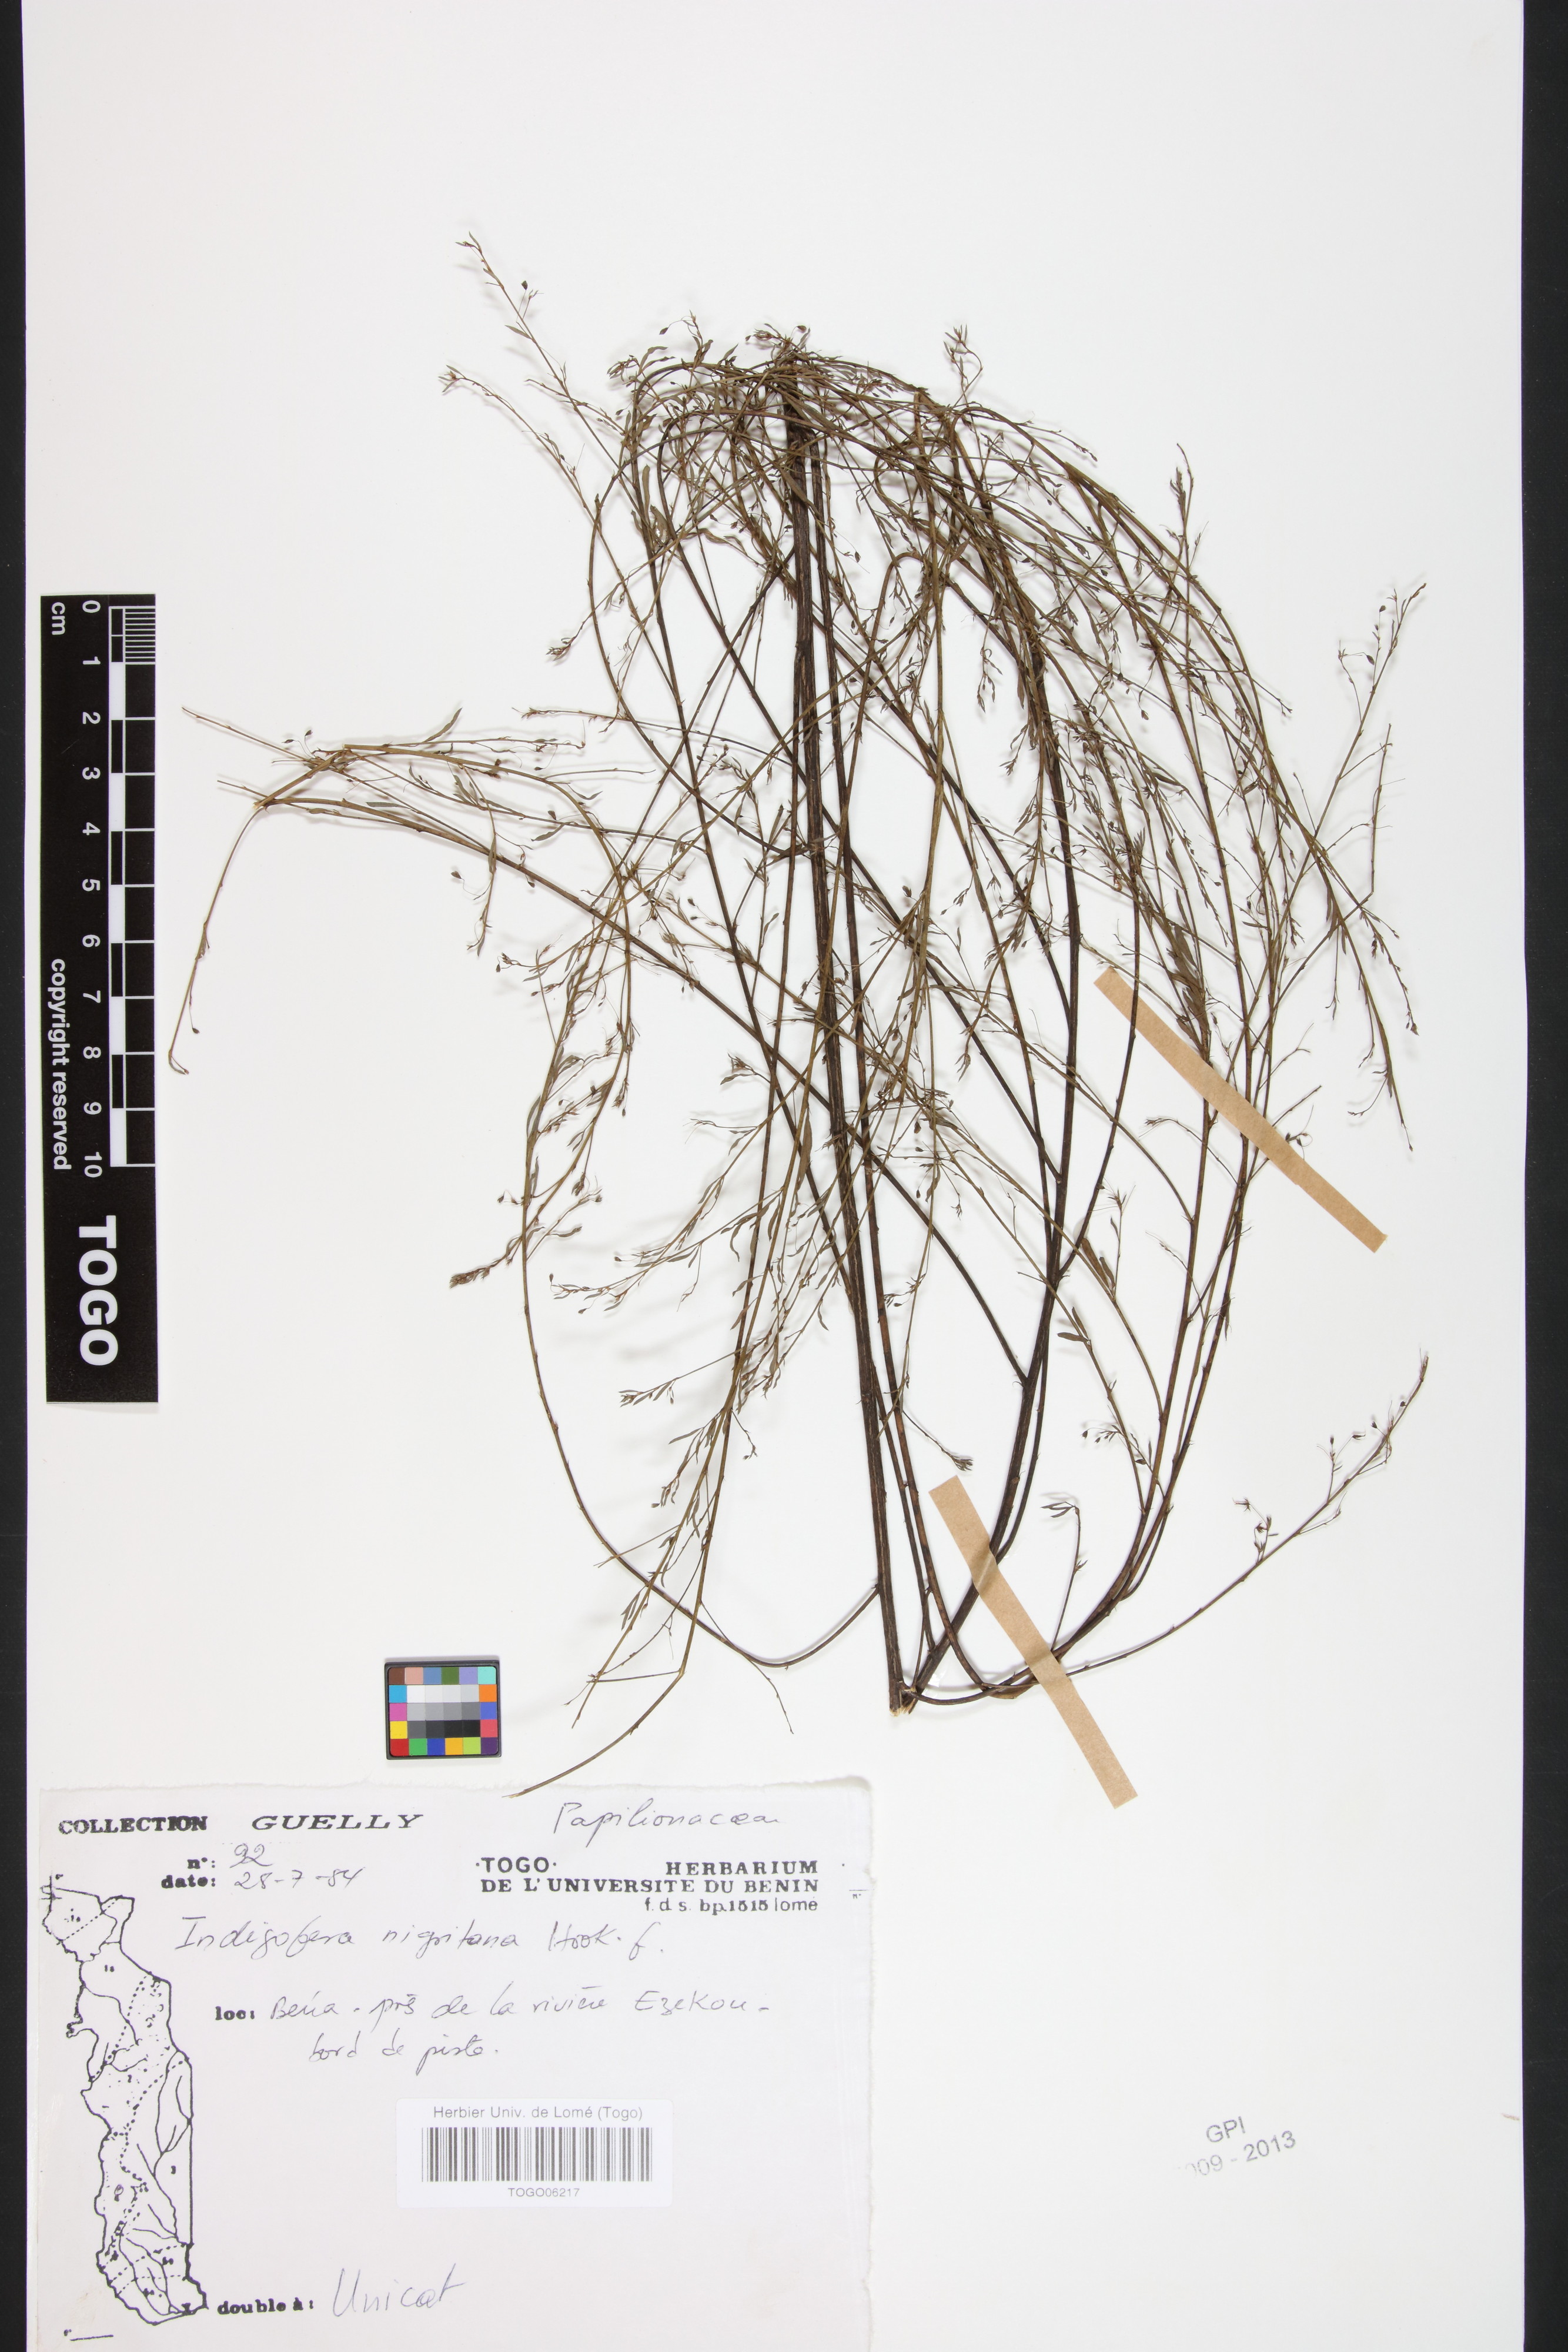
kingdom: Plantae
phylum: Tracheophyta
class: Magnoliopsida
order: Fabales
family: Fabaceae
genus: Indigofera
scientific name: Indigofera nigritana
